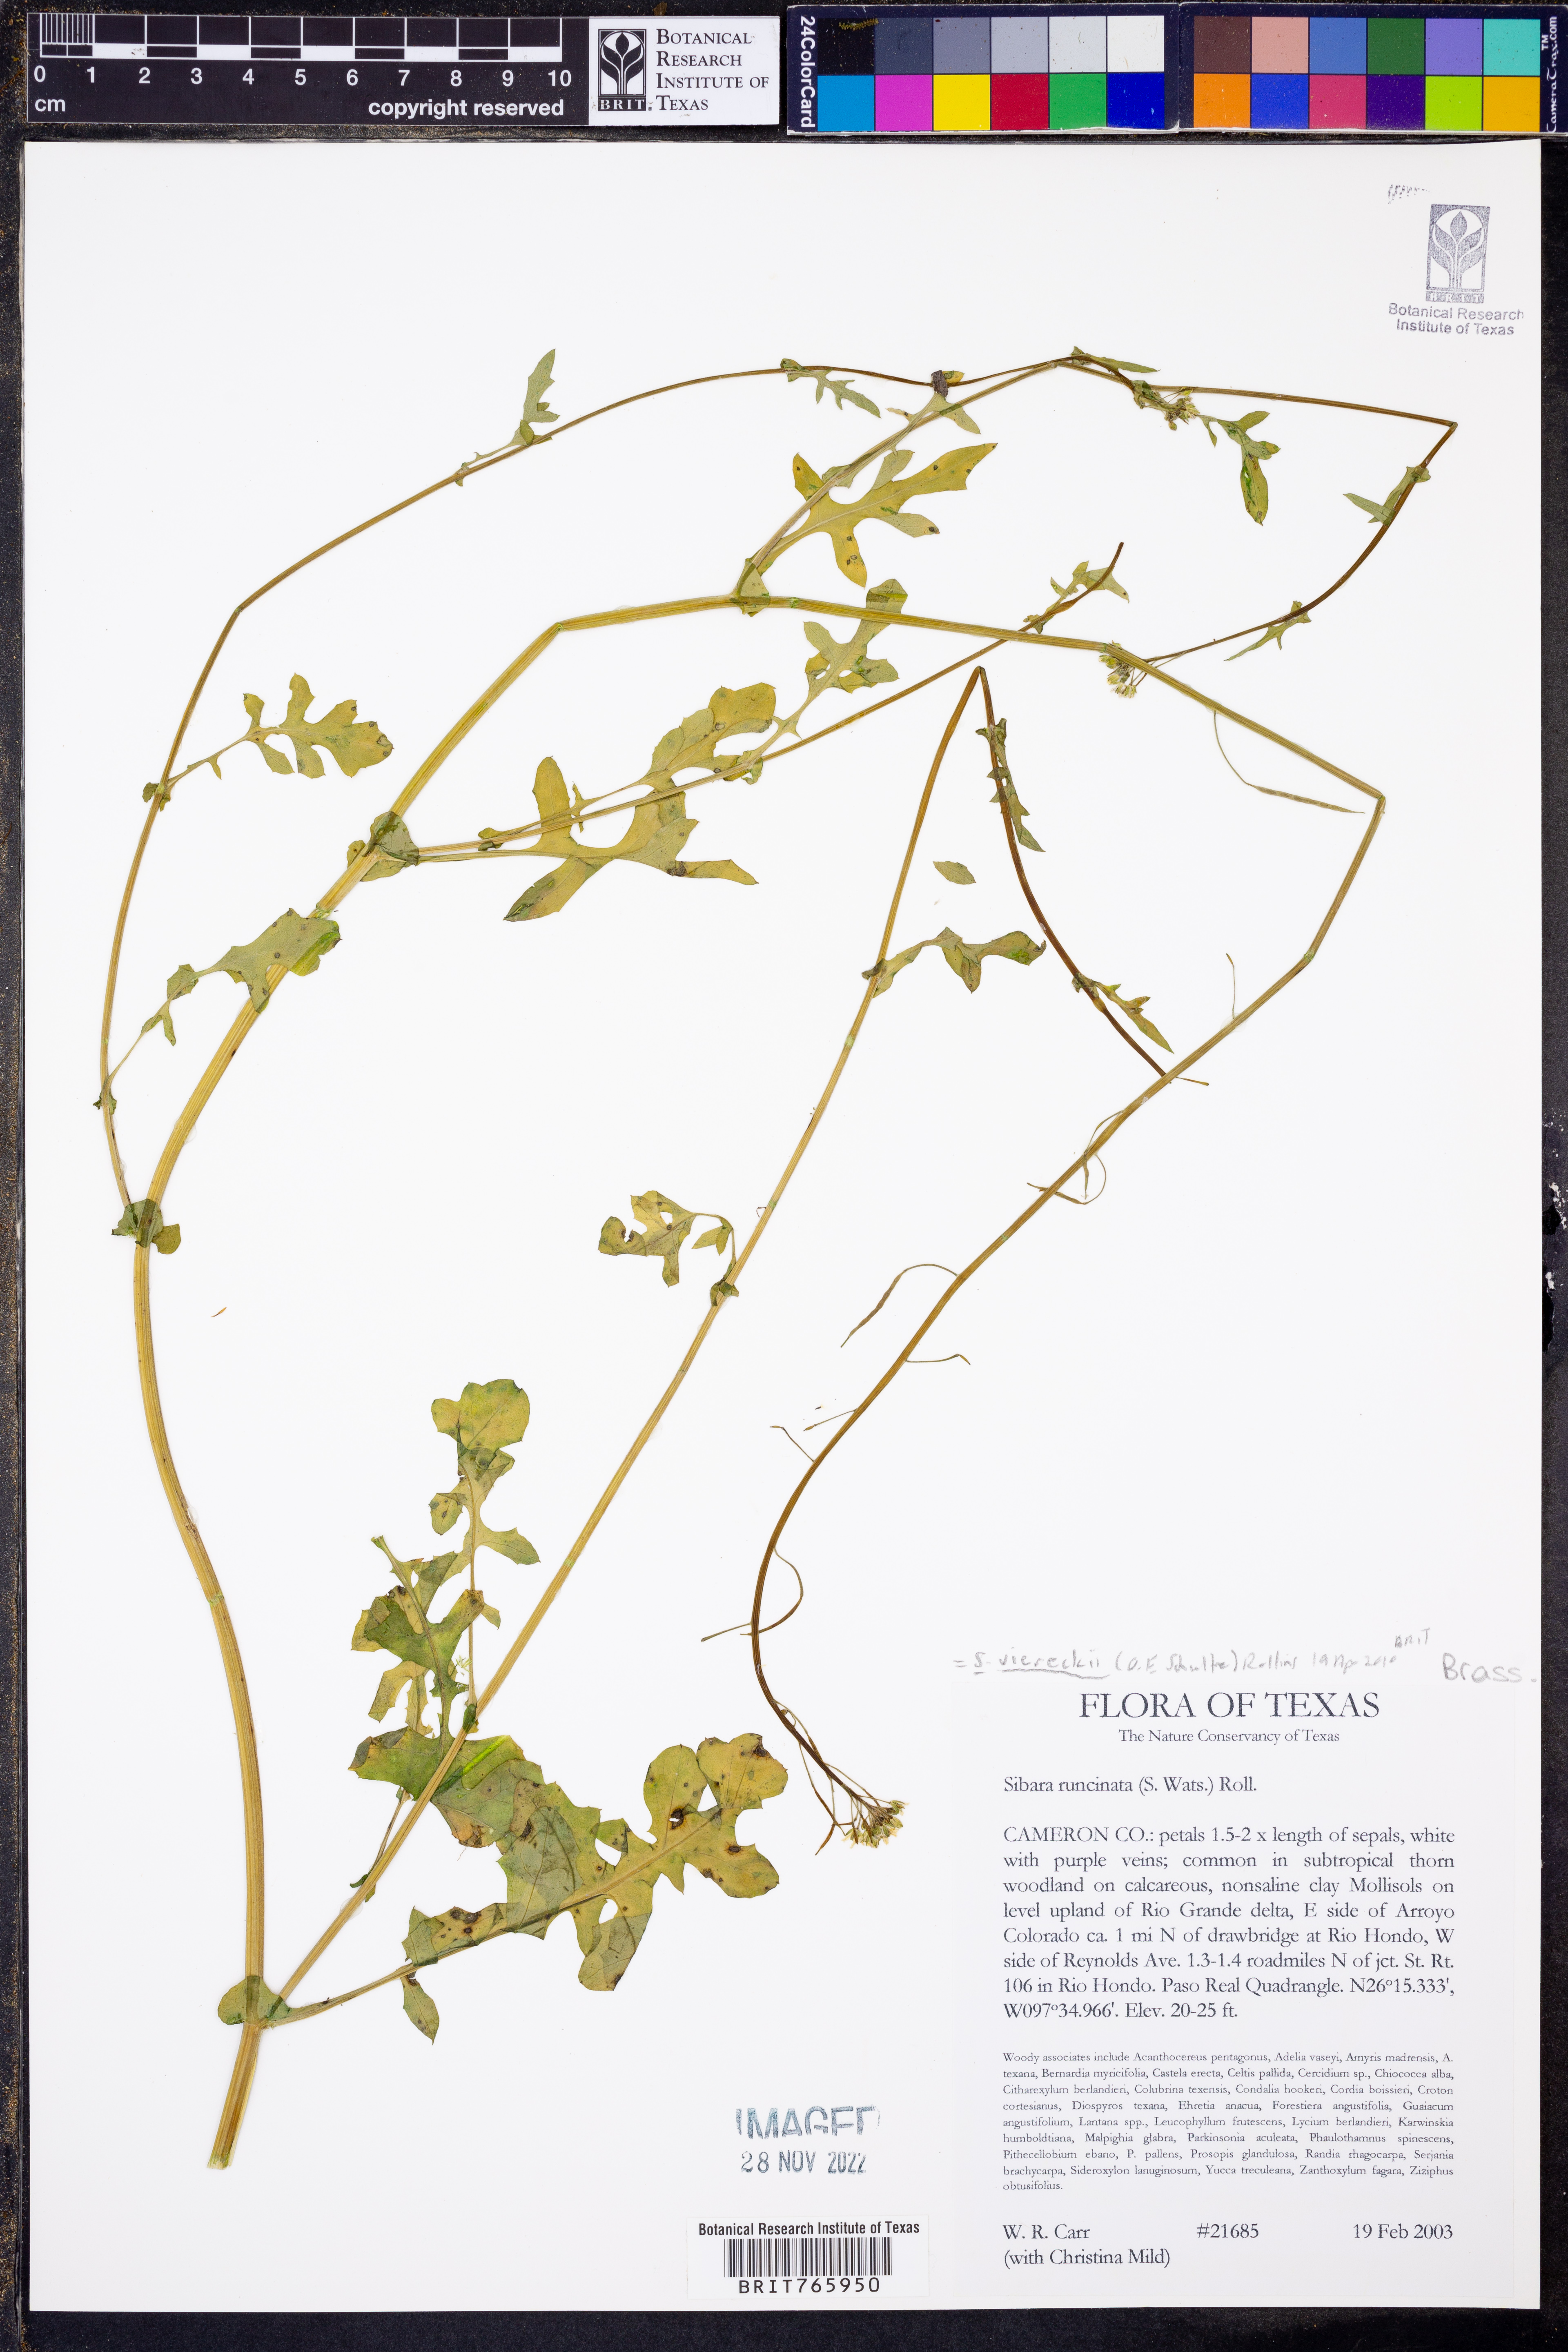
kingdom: Plantae
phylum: Tracheophyta
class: Magnoliopsida
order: Brassicales
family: Brassicaceae
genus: Phravenia
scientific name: Phravenia viereckii
